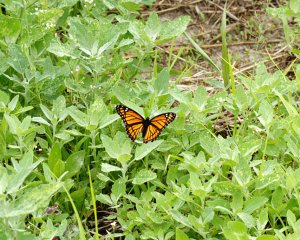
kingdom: Animalia
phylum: Arthropoda
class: Insecta
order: Lepidoptera
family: Nymphalidae
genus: Limenitis
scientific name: Limenitis archippus
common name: Viceroy
